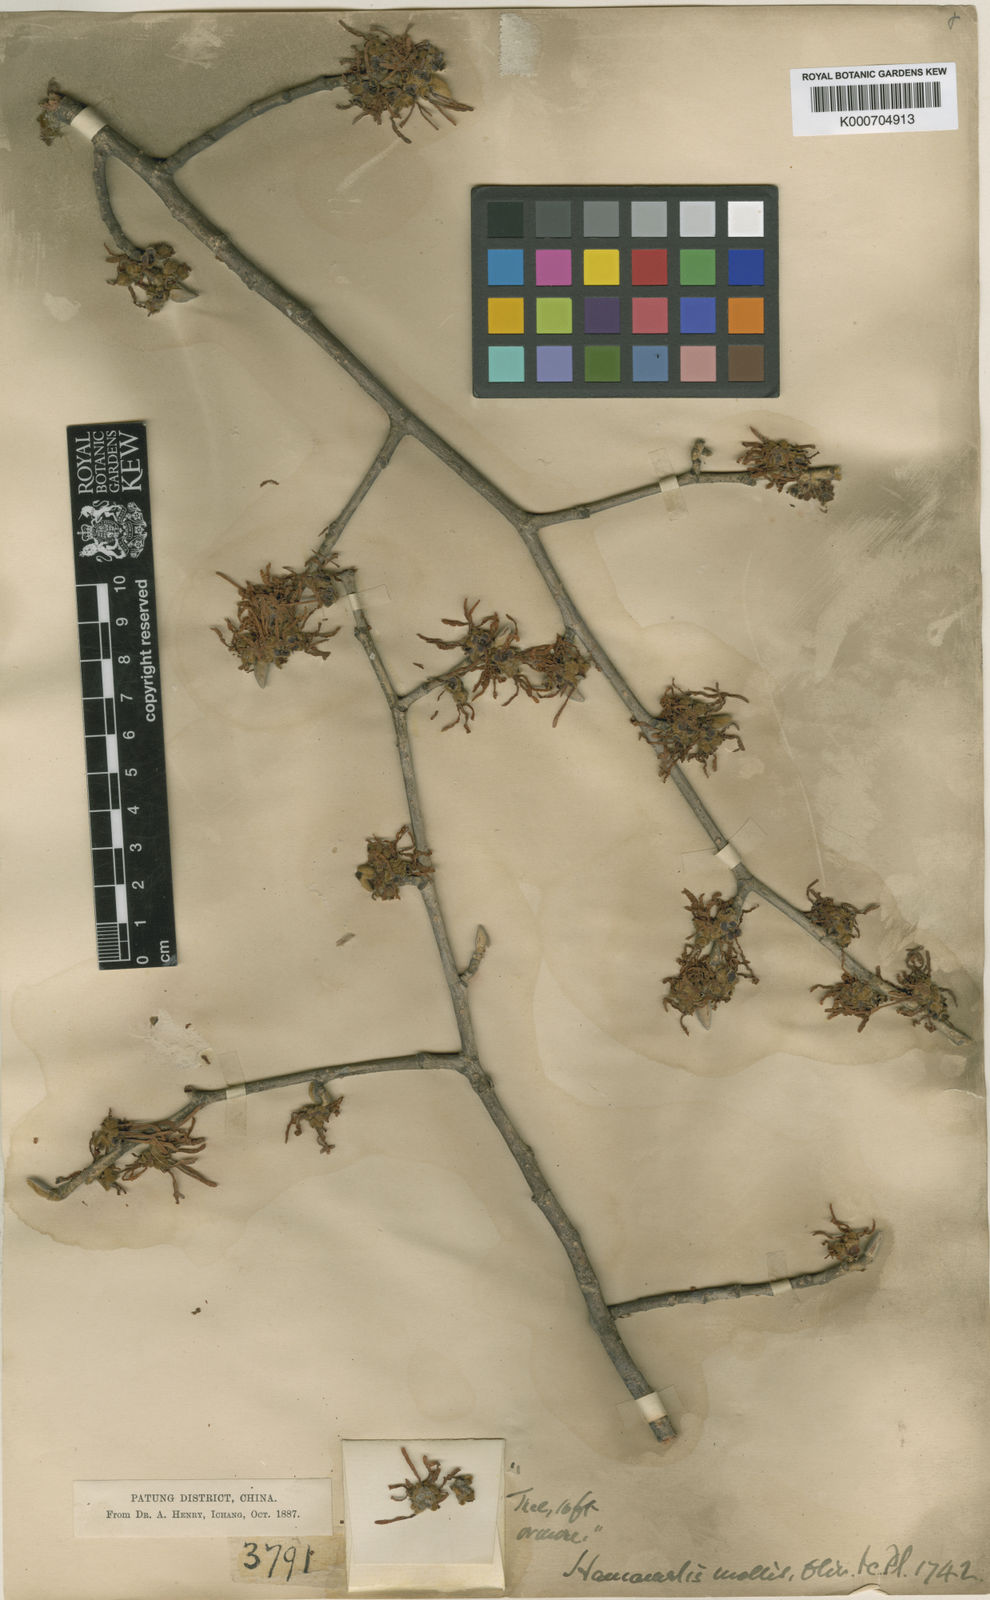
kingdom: Plantae
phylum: Tracheophyta
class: Magnoliopsida
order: Saxifragales
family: Hamamelidaceae
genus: Hamamelis
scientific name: Hamamelis
